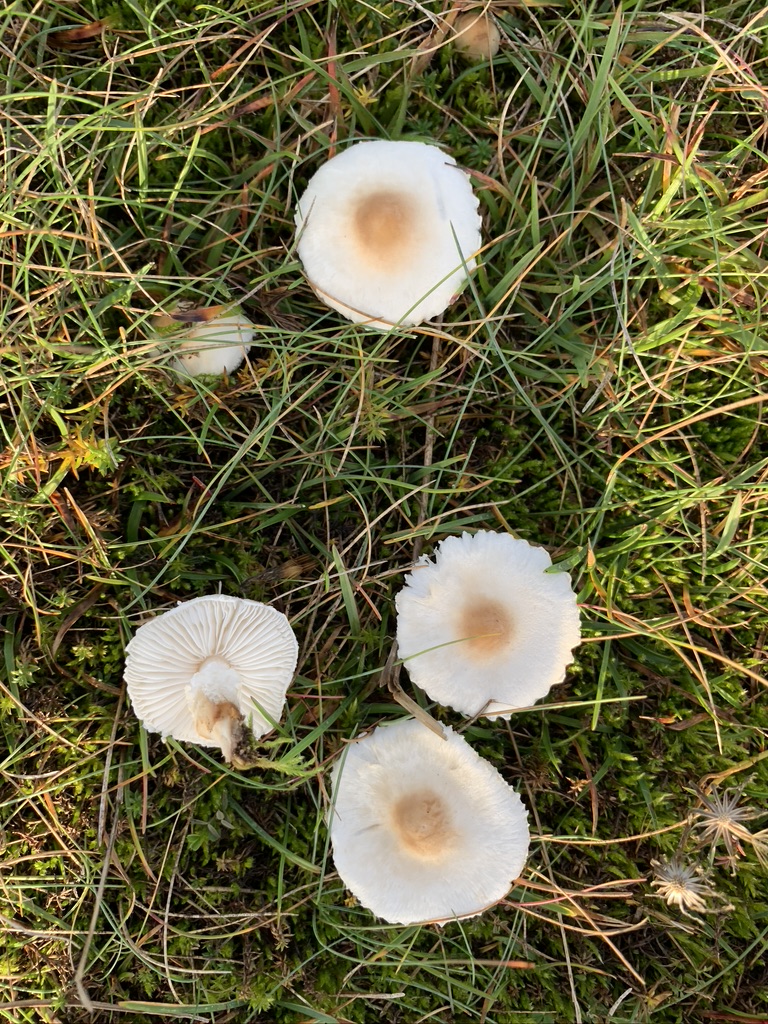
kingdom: Fungi
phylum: Basidiomycota
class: Agaricomycetes
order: Agaricales
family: Agaricaceae
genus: Lepiota
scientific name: Lepiota erminea
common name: hvid parasolhat
